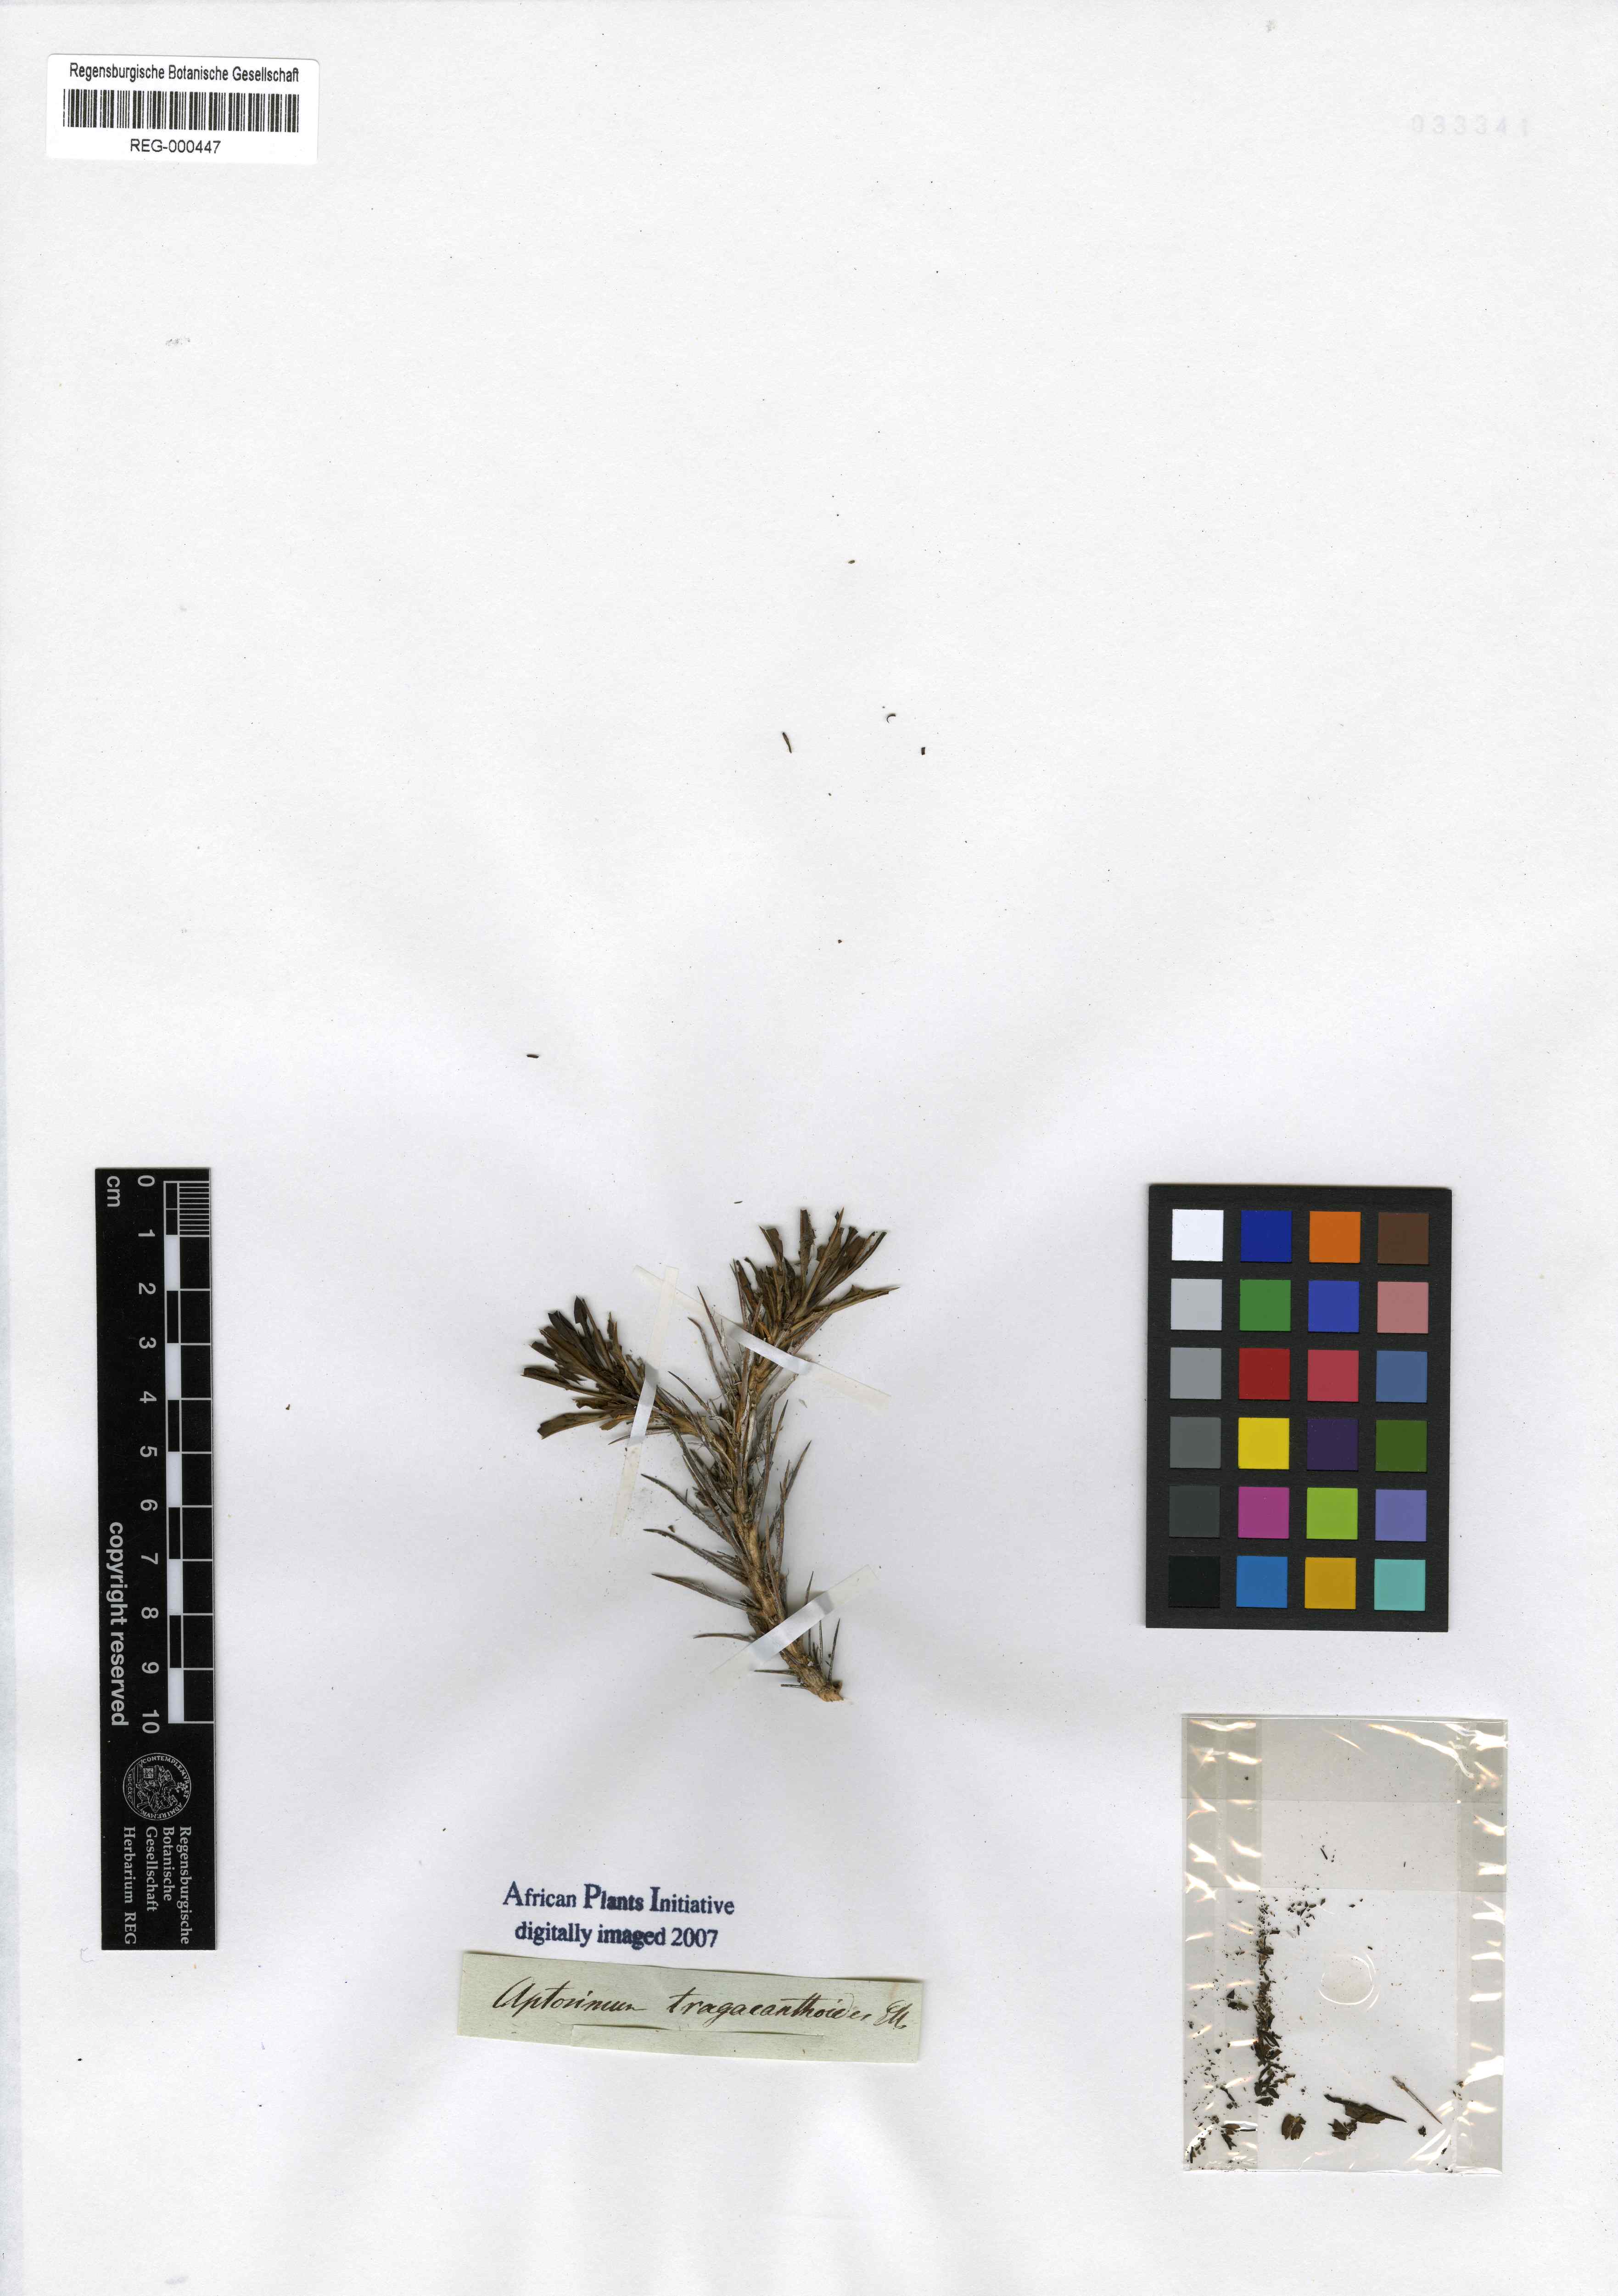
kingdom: Plantae
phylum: Tracheophyta
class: Magnoliopsida
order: Lamiales
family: Scrophulariaceae
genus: Aptosimum
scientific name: Aptosimum tragacanthoides
